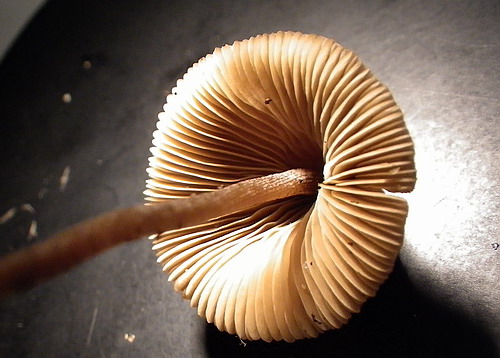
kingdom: Fungi
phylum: Basidiomycota
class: Agaricomycetes
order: Agaricales
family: Bolbitiaceae
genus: Conocybe
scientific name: Conocybe bisporigera
